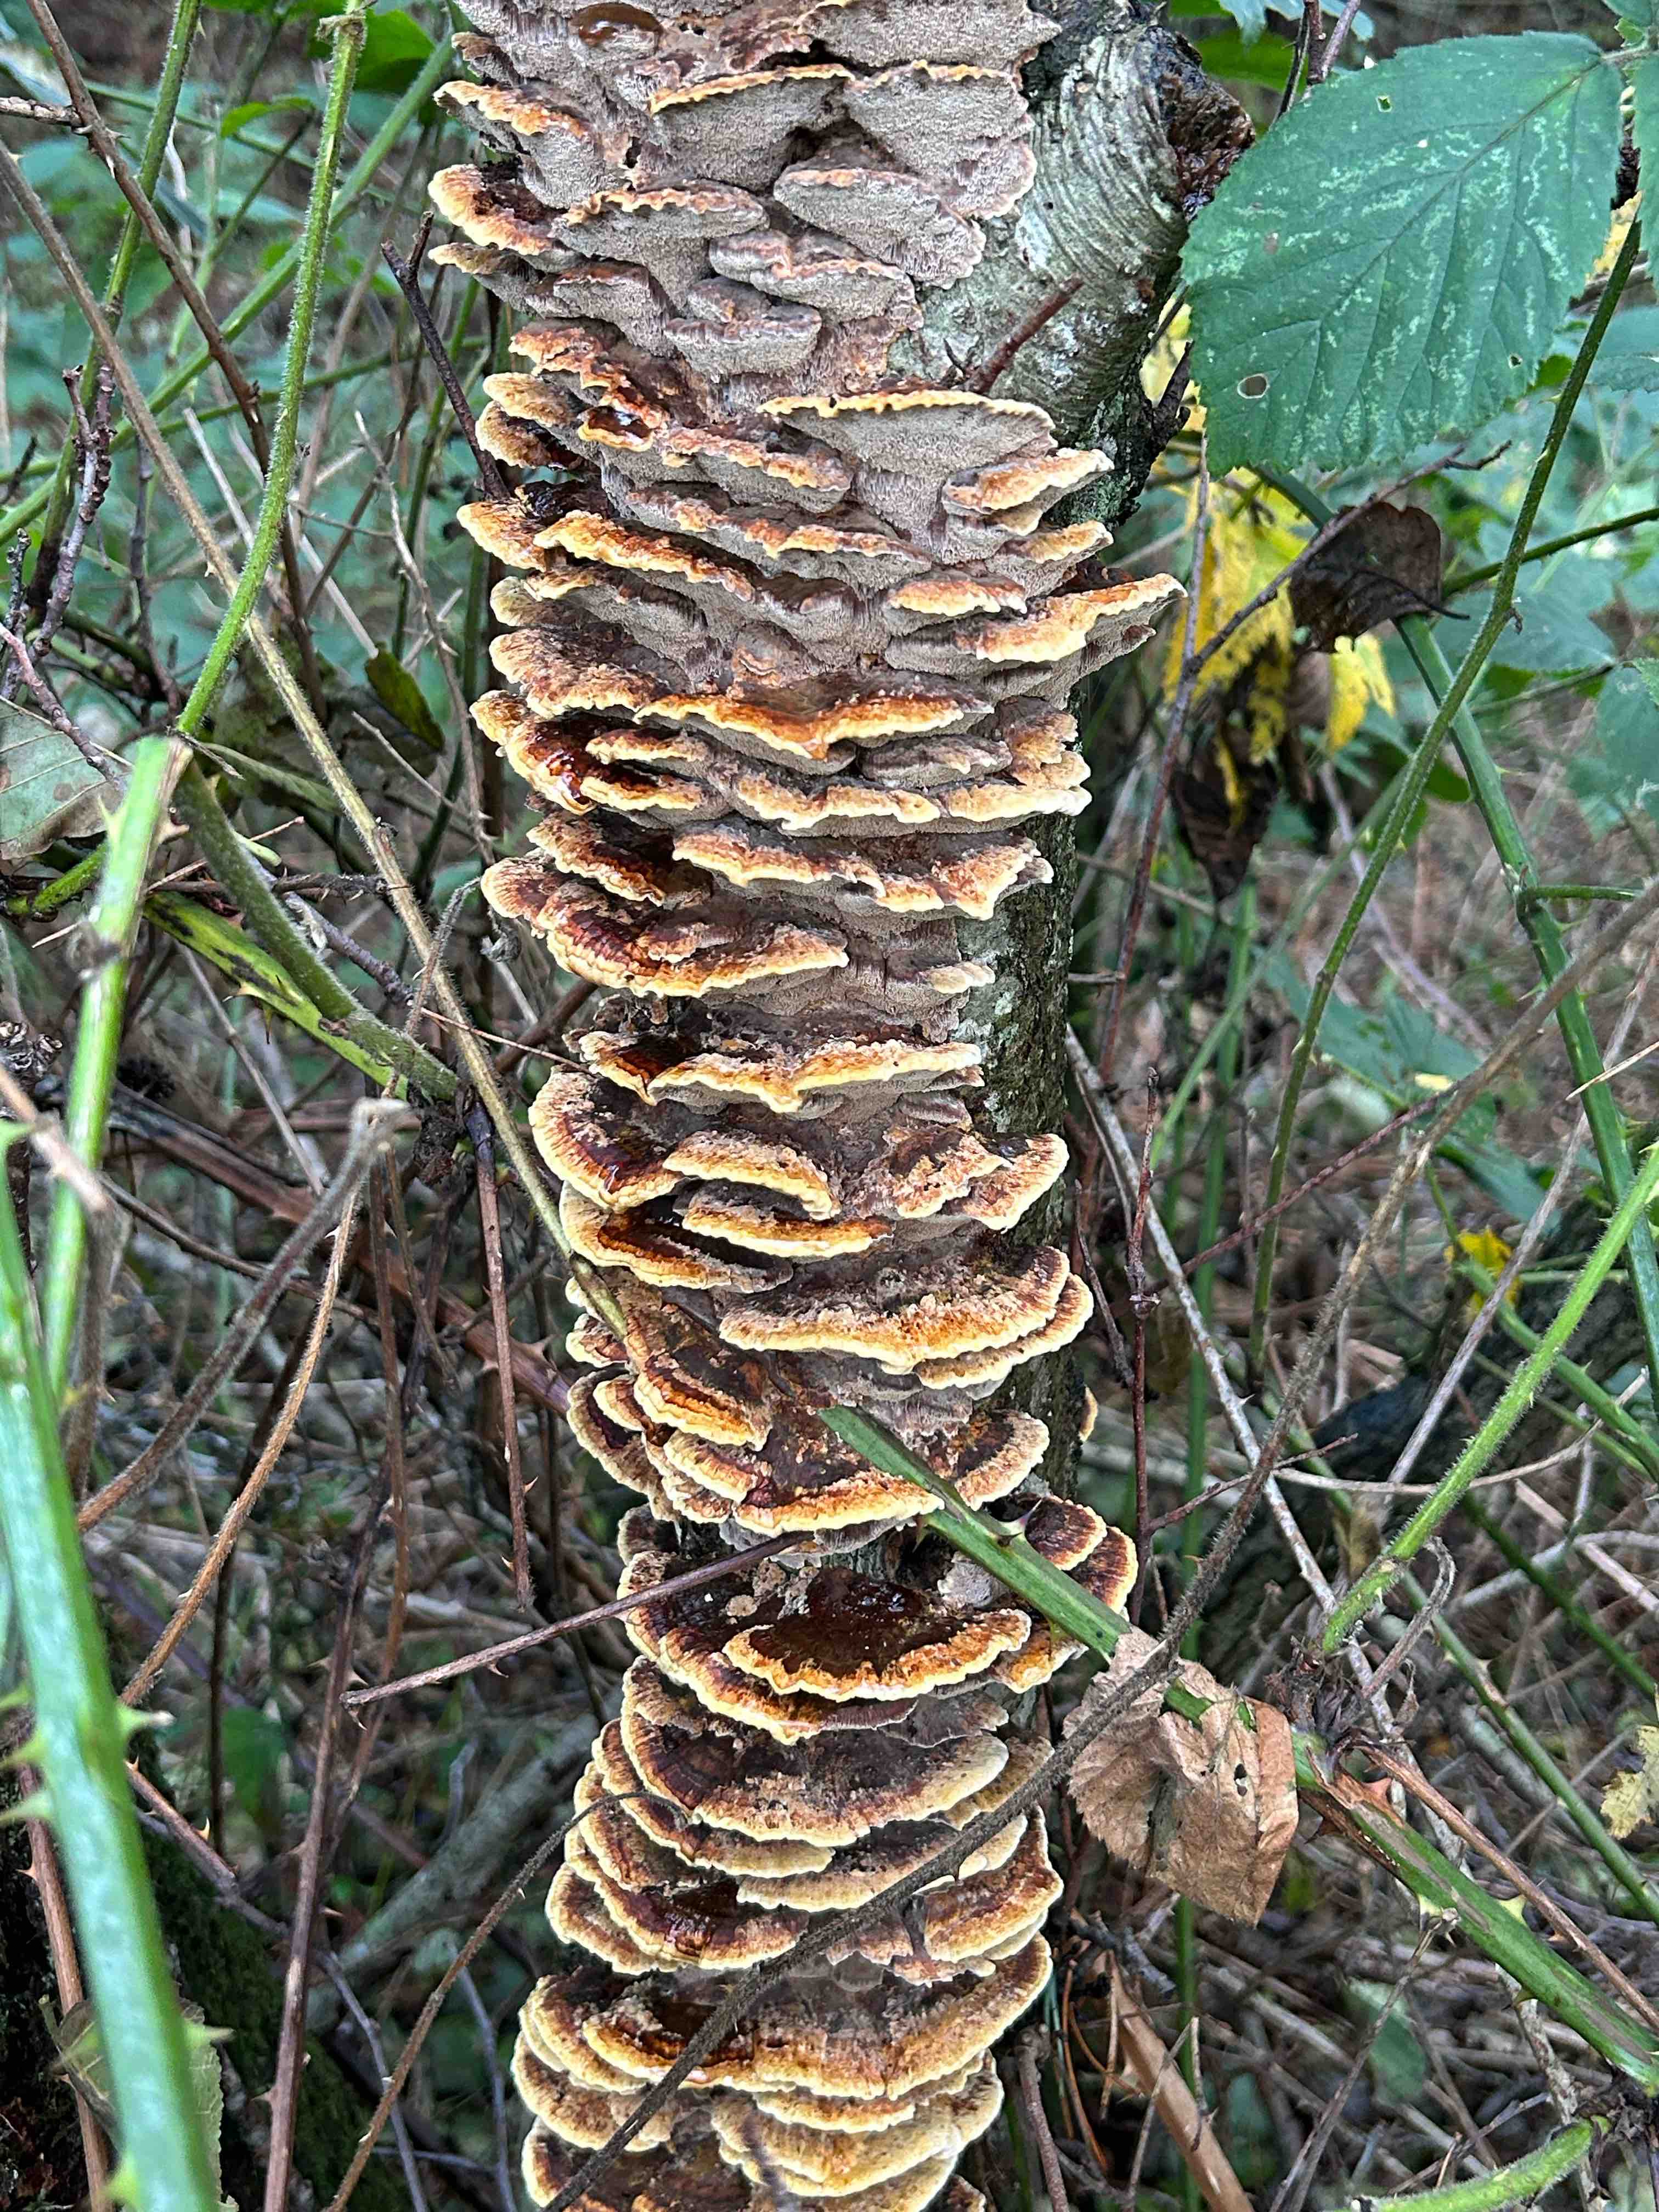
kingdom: Fungi
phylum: Basidiomycota
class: Agaricomycetes
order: Hymenochaetales
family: Hymenochaetaceae
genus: Xanthoporia
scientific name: Xanthoporia radiata
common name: elle-spejlporesvamp
